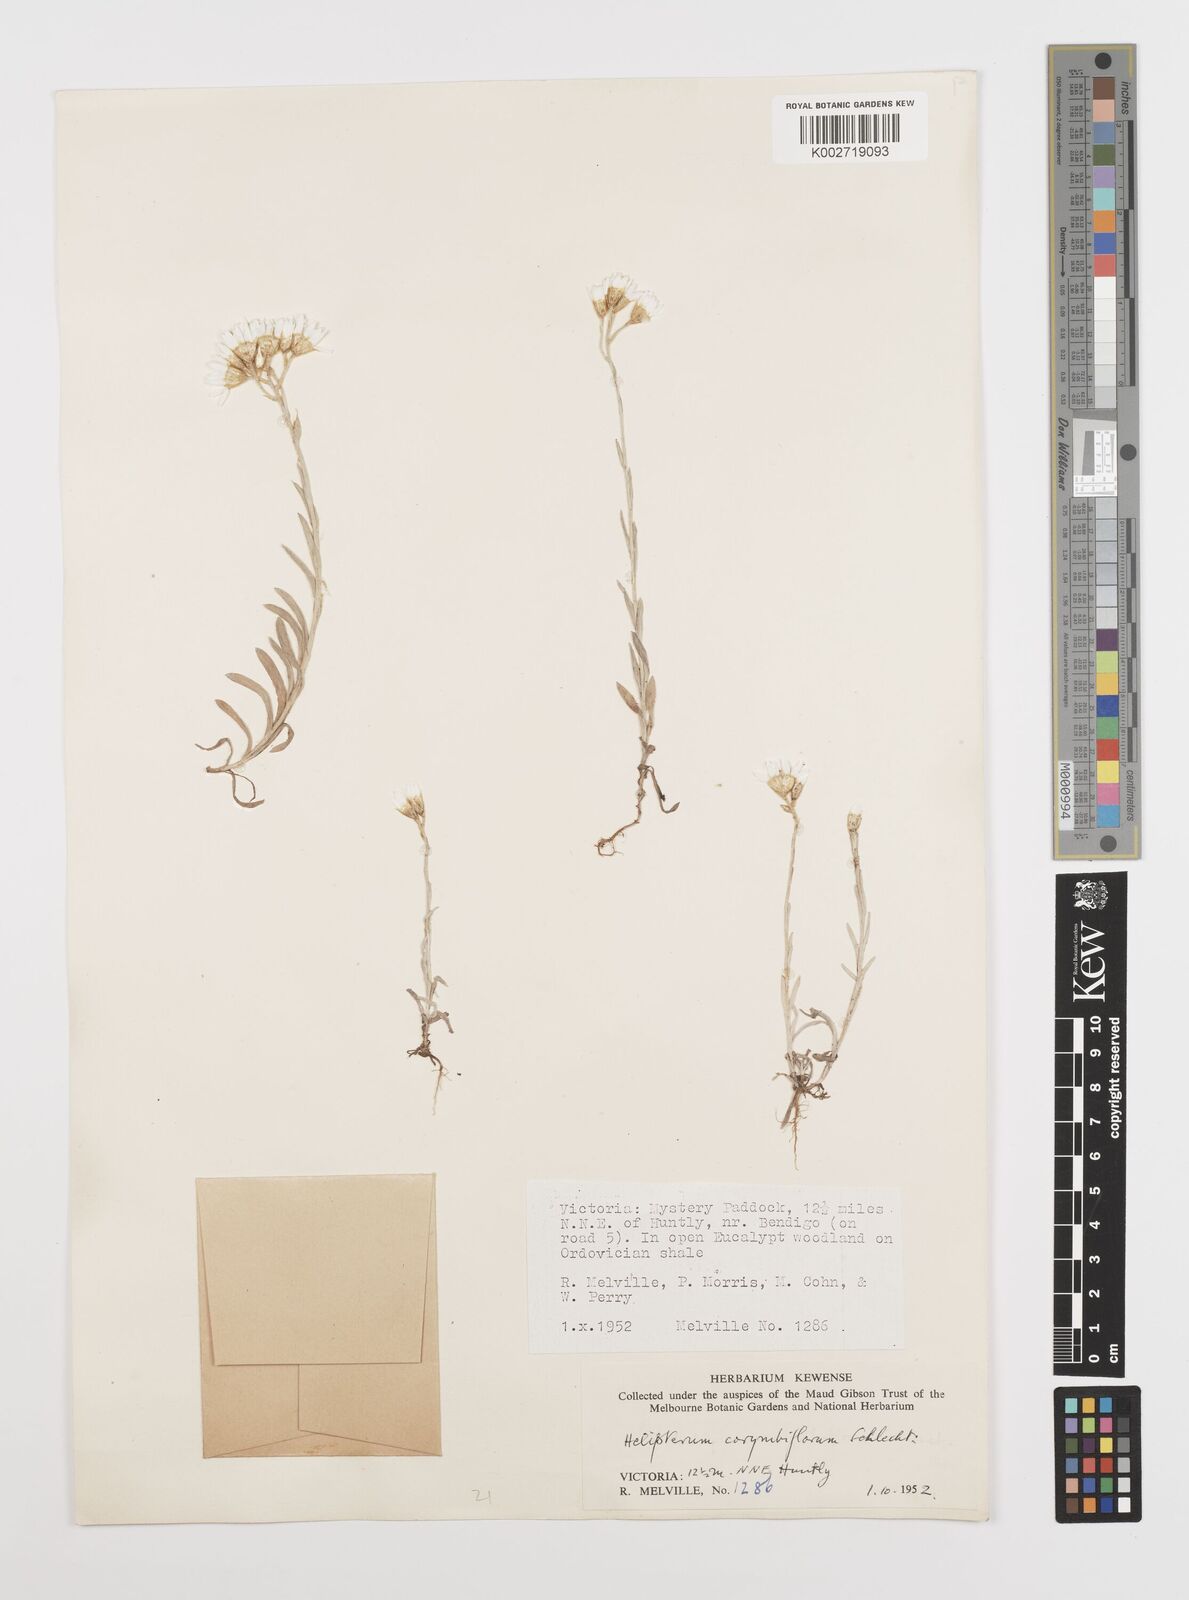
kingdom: Plantae
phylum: Tracheophyta
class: Magnoliopsida
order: Asterales
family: Asteraceae
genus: Rhodanthe
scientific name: Rhodanthe corymbiflora
